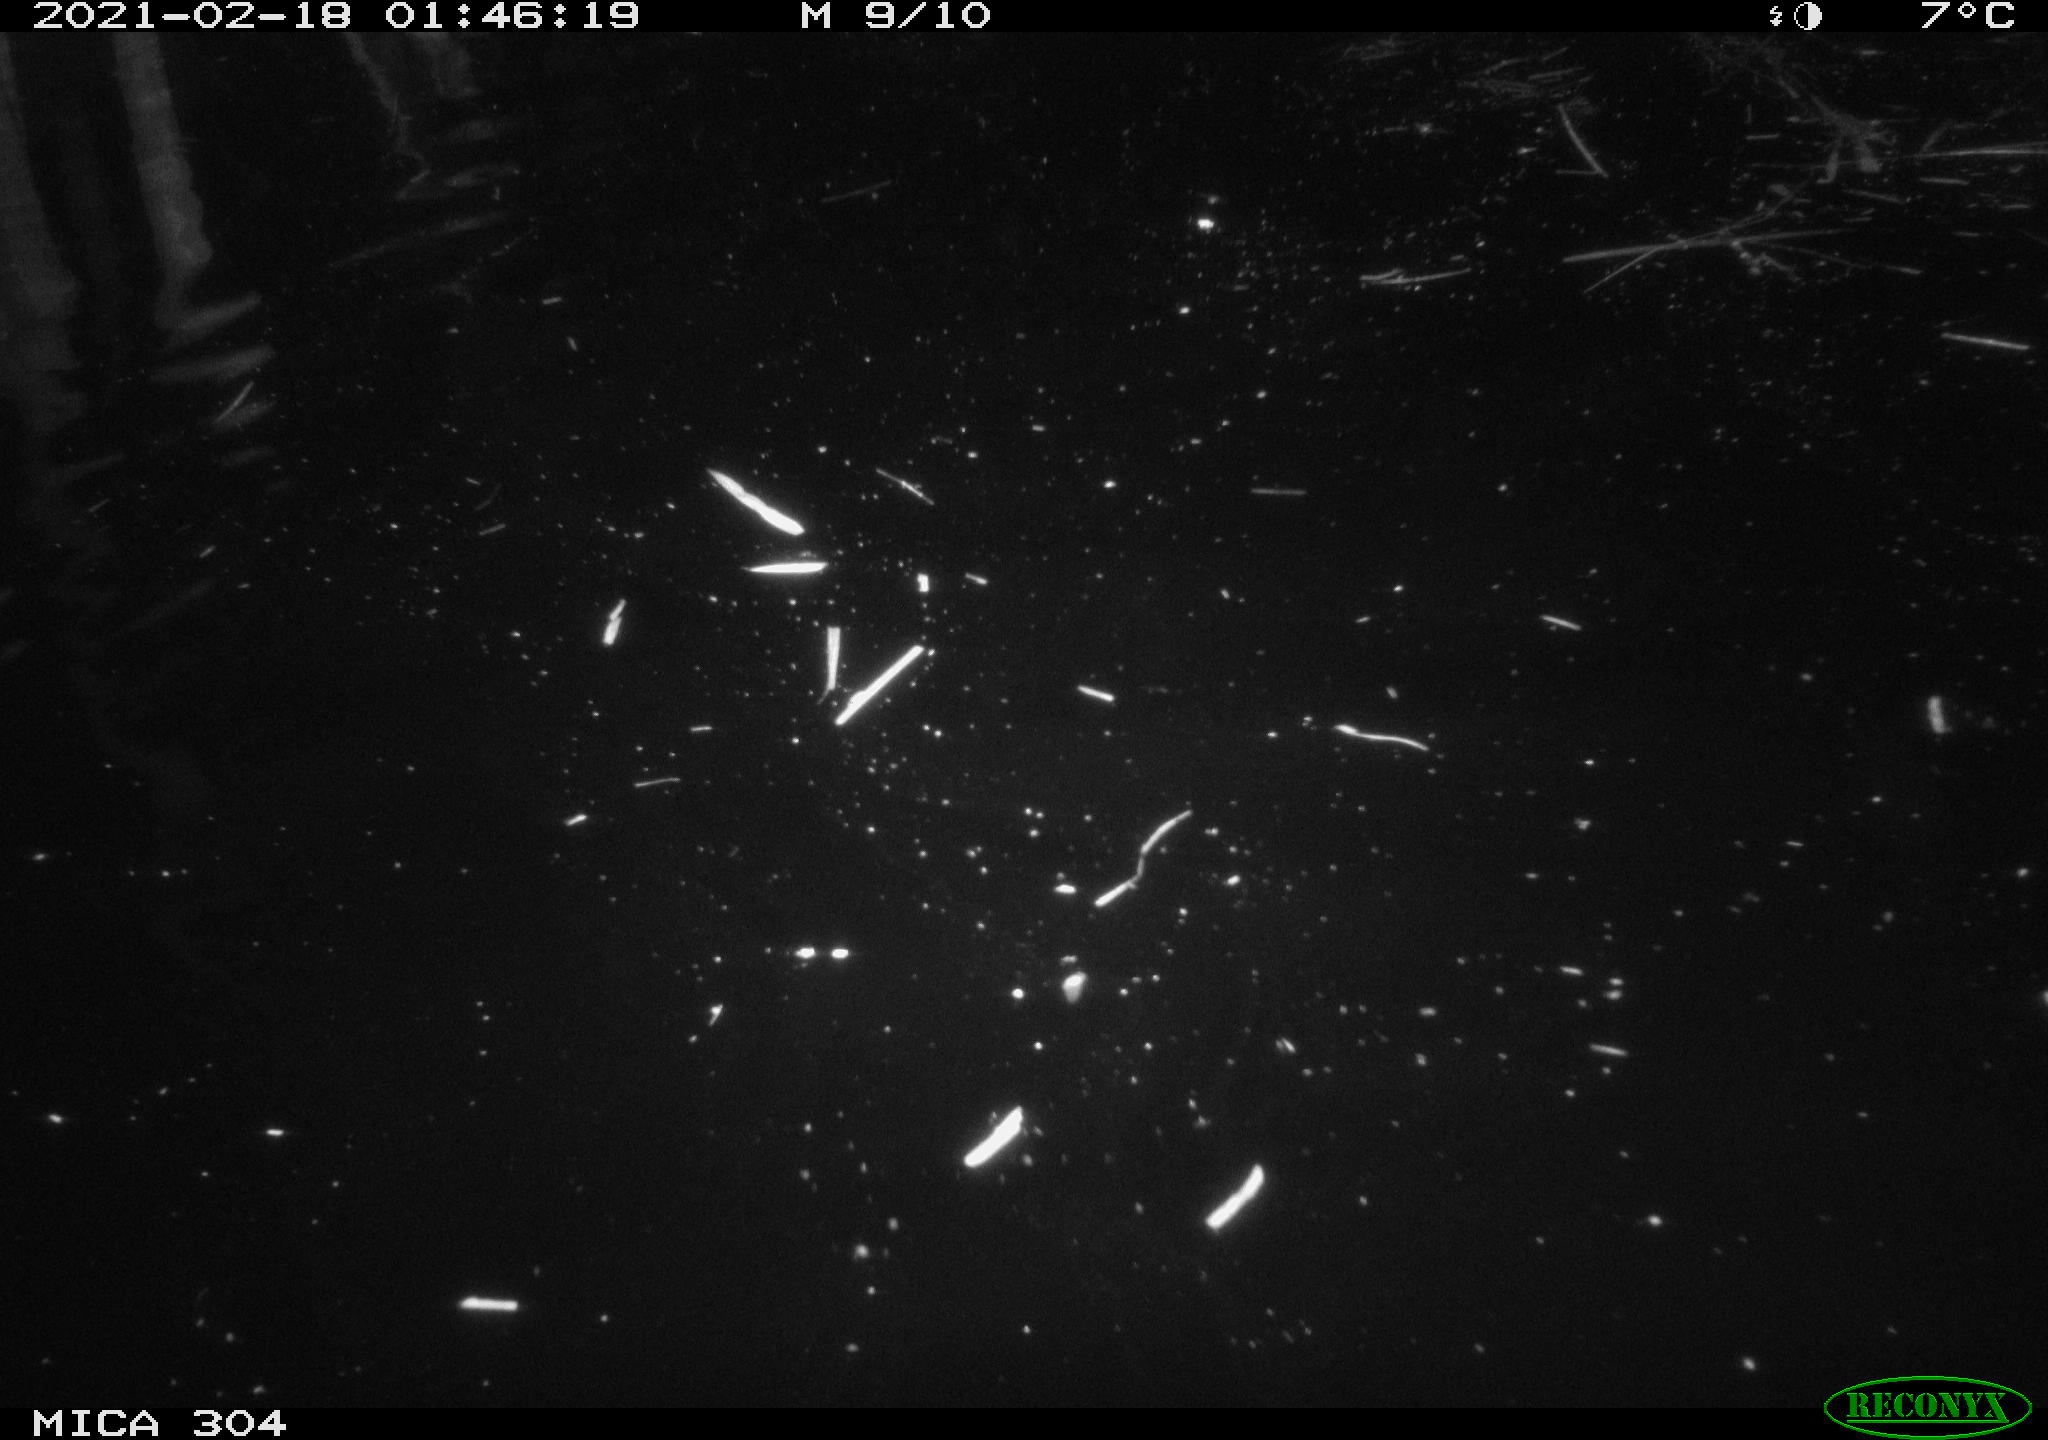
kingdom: Animalia
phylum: Chordata
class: Mammalia
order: Rodentia
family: Cricetidae
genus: Ondatra
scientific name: Ondatra zibethicus
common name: Muskrat
